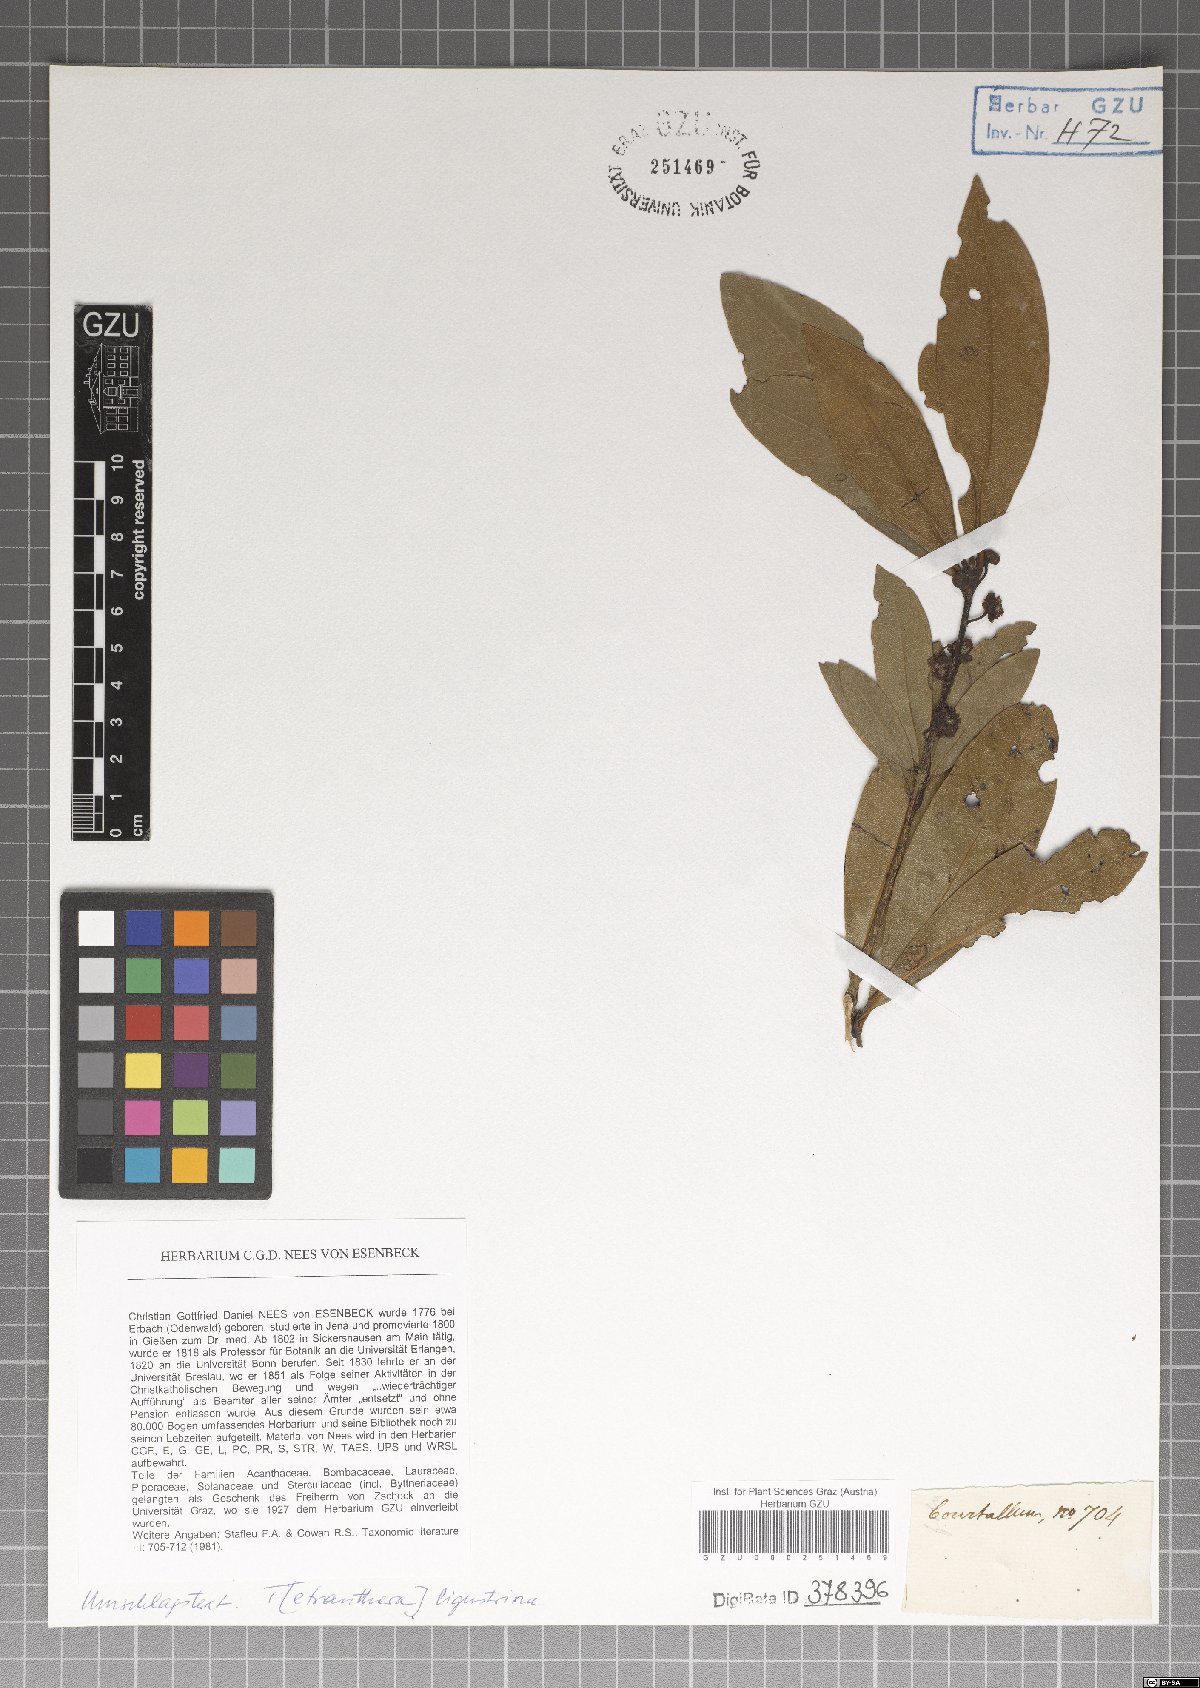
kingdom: Plantae
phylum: Tracheophyta
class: Magnoliopsida
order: Laurales
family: Lauraceae
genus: Litsea
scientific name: Litsea ligustrina
